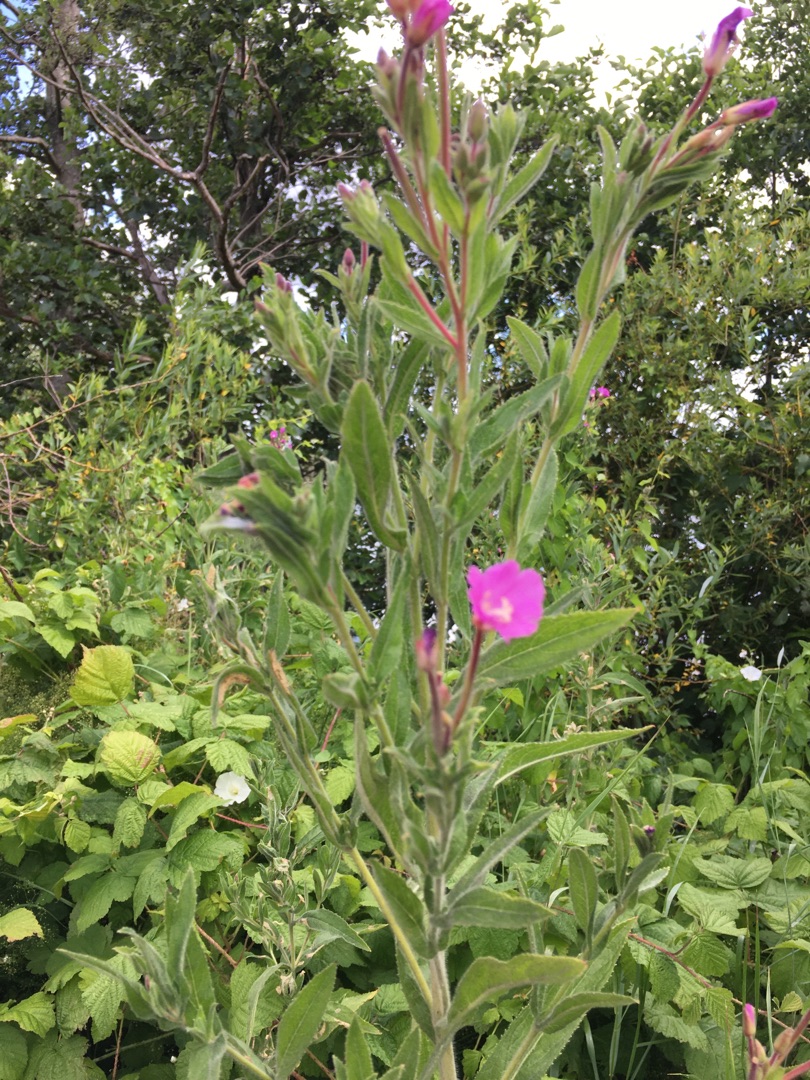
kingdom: Plantae
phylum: Tracheophyta
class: Magnoliopsida
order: Myrtales
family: Onagraceae
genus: Epilobium
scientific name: Epilobium hirsutum
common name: Lådden dueurt
